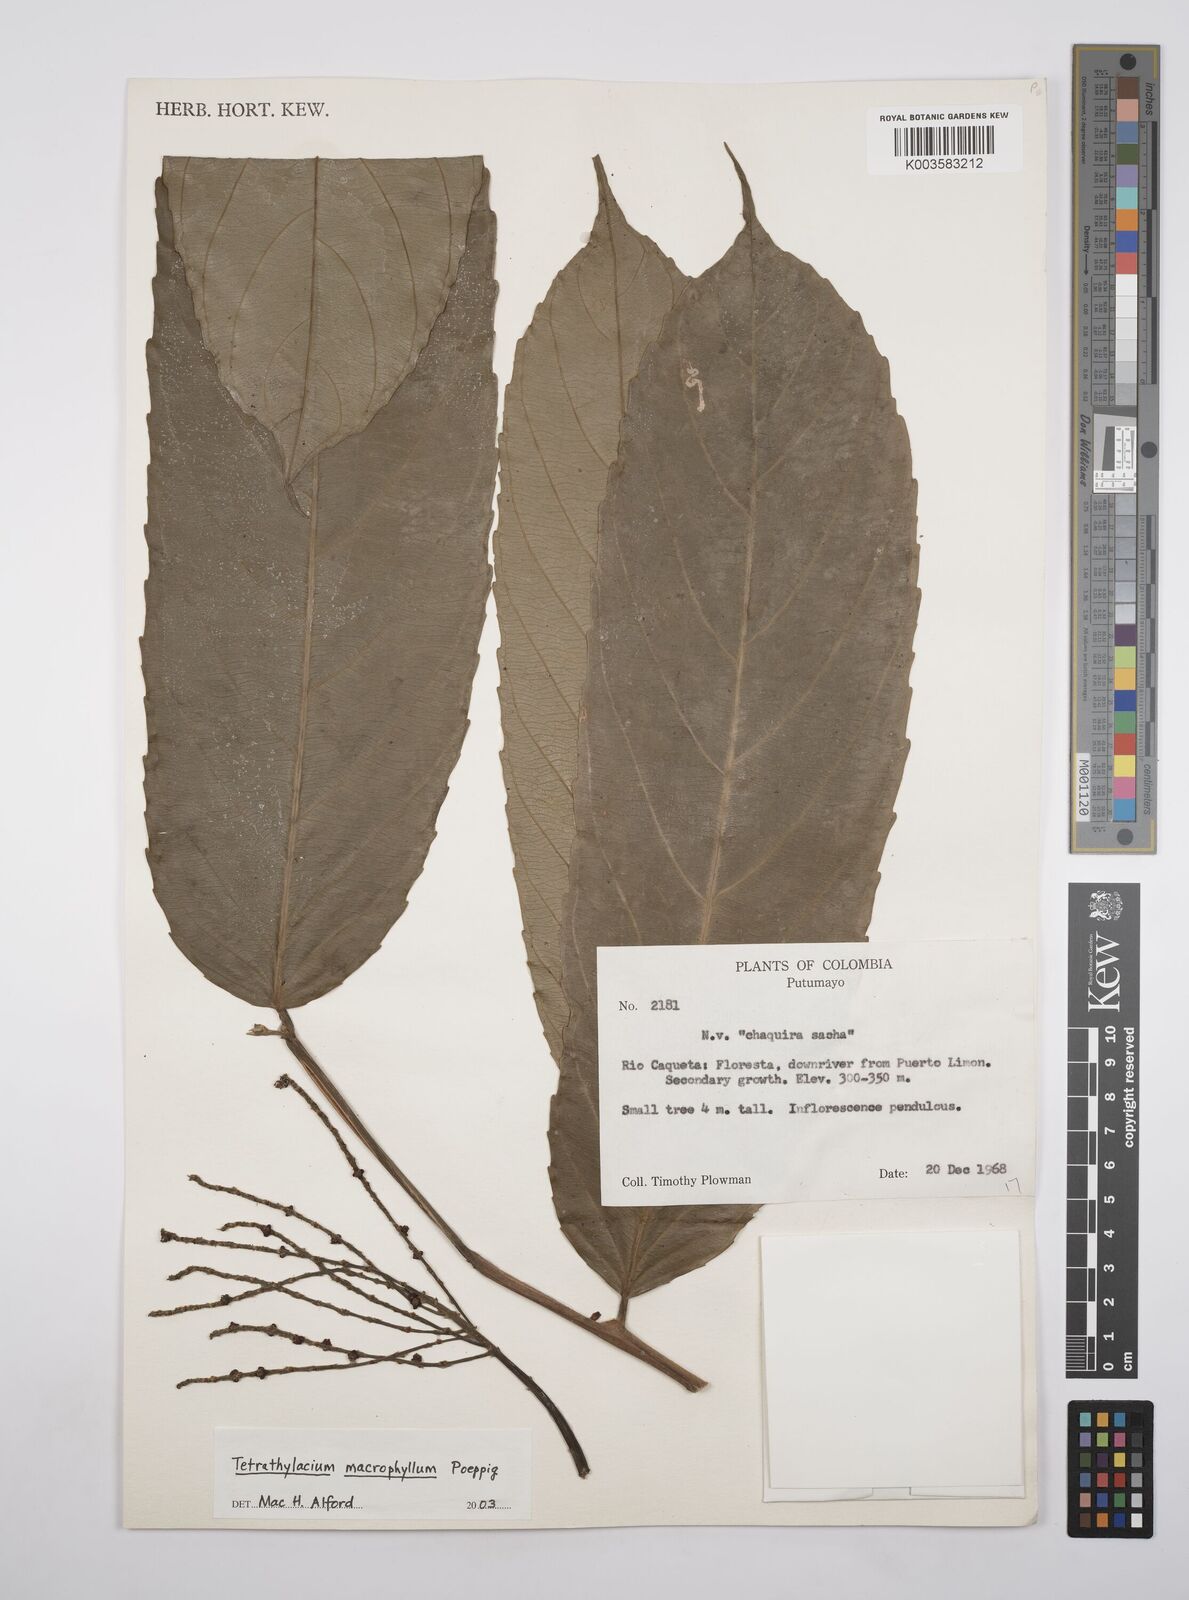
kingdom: Plantae
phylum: Tracheophyta
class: Magnoliopsida
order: Malpighiales
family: Salicaceae
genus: Tetrathylacium
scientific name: Tetrathylacium macrophyllum
